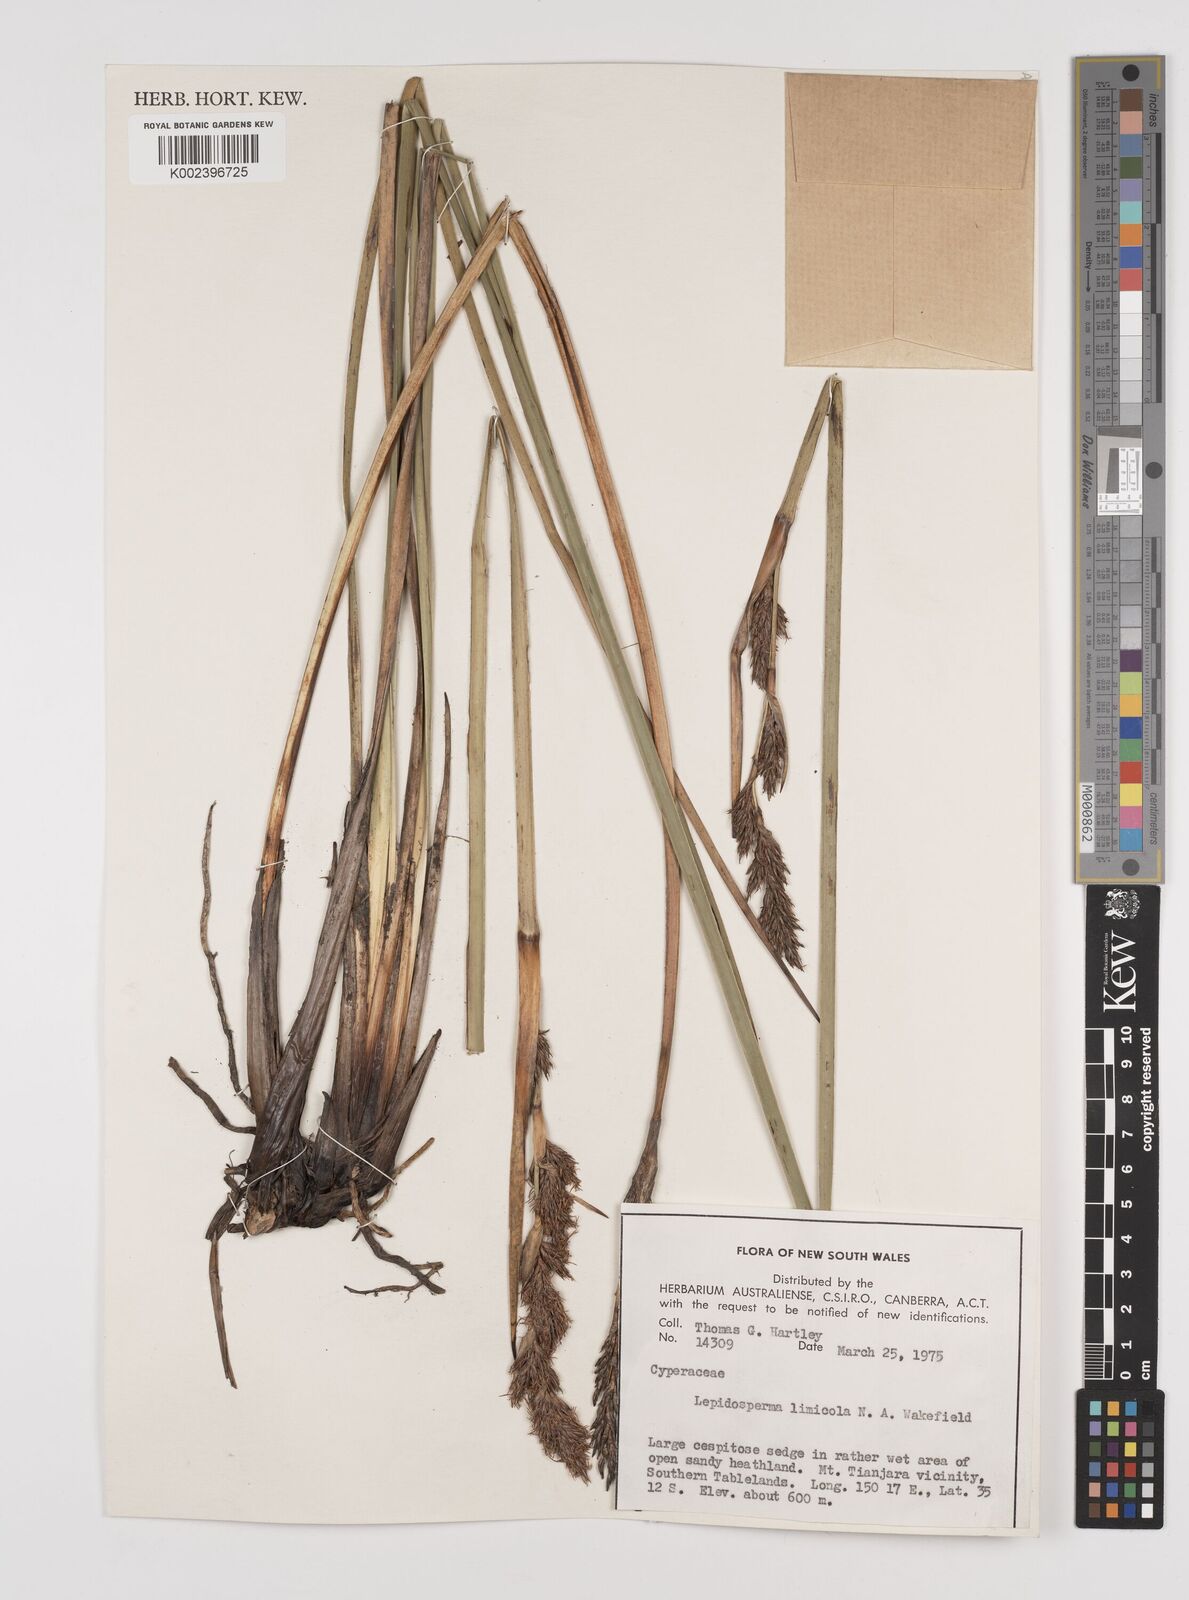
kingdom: Plantae
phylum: Tracheophyta
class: Liliopsida
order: Poales
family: Cyperaceae
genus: Lepidosperma
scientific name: Lepidosperma limicola
